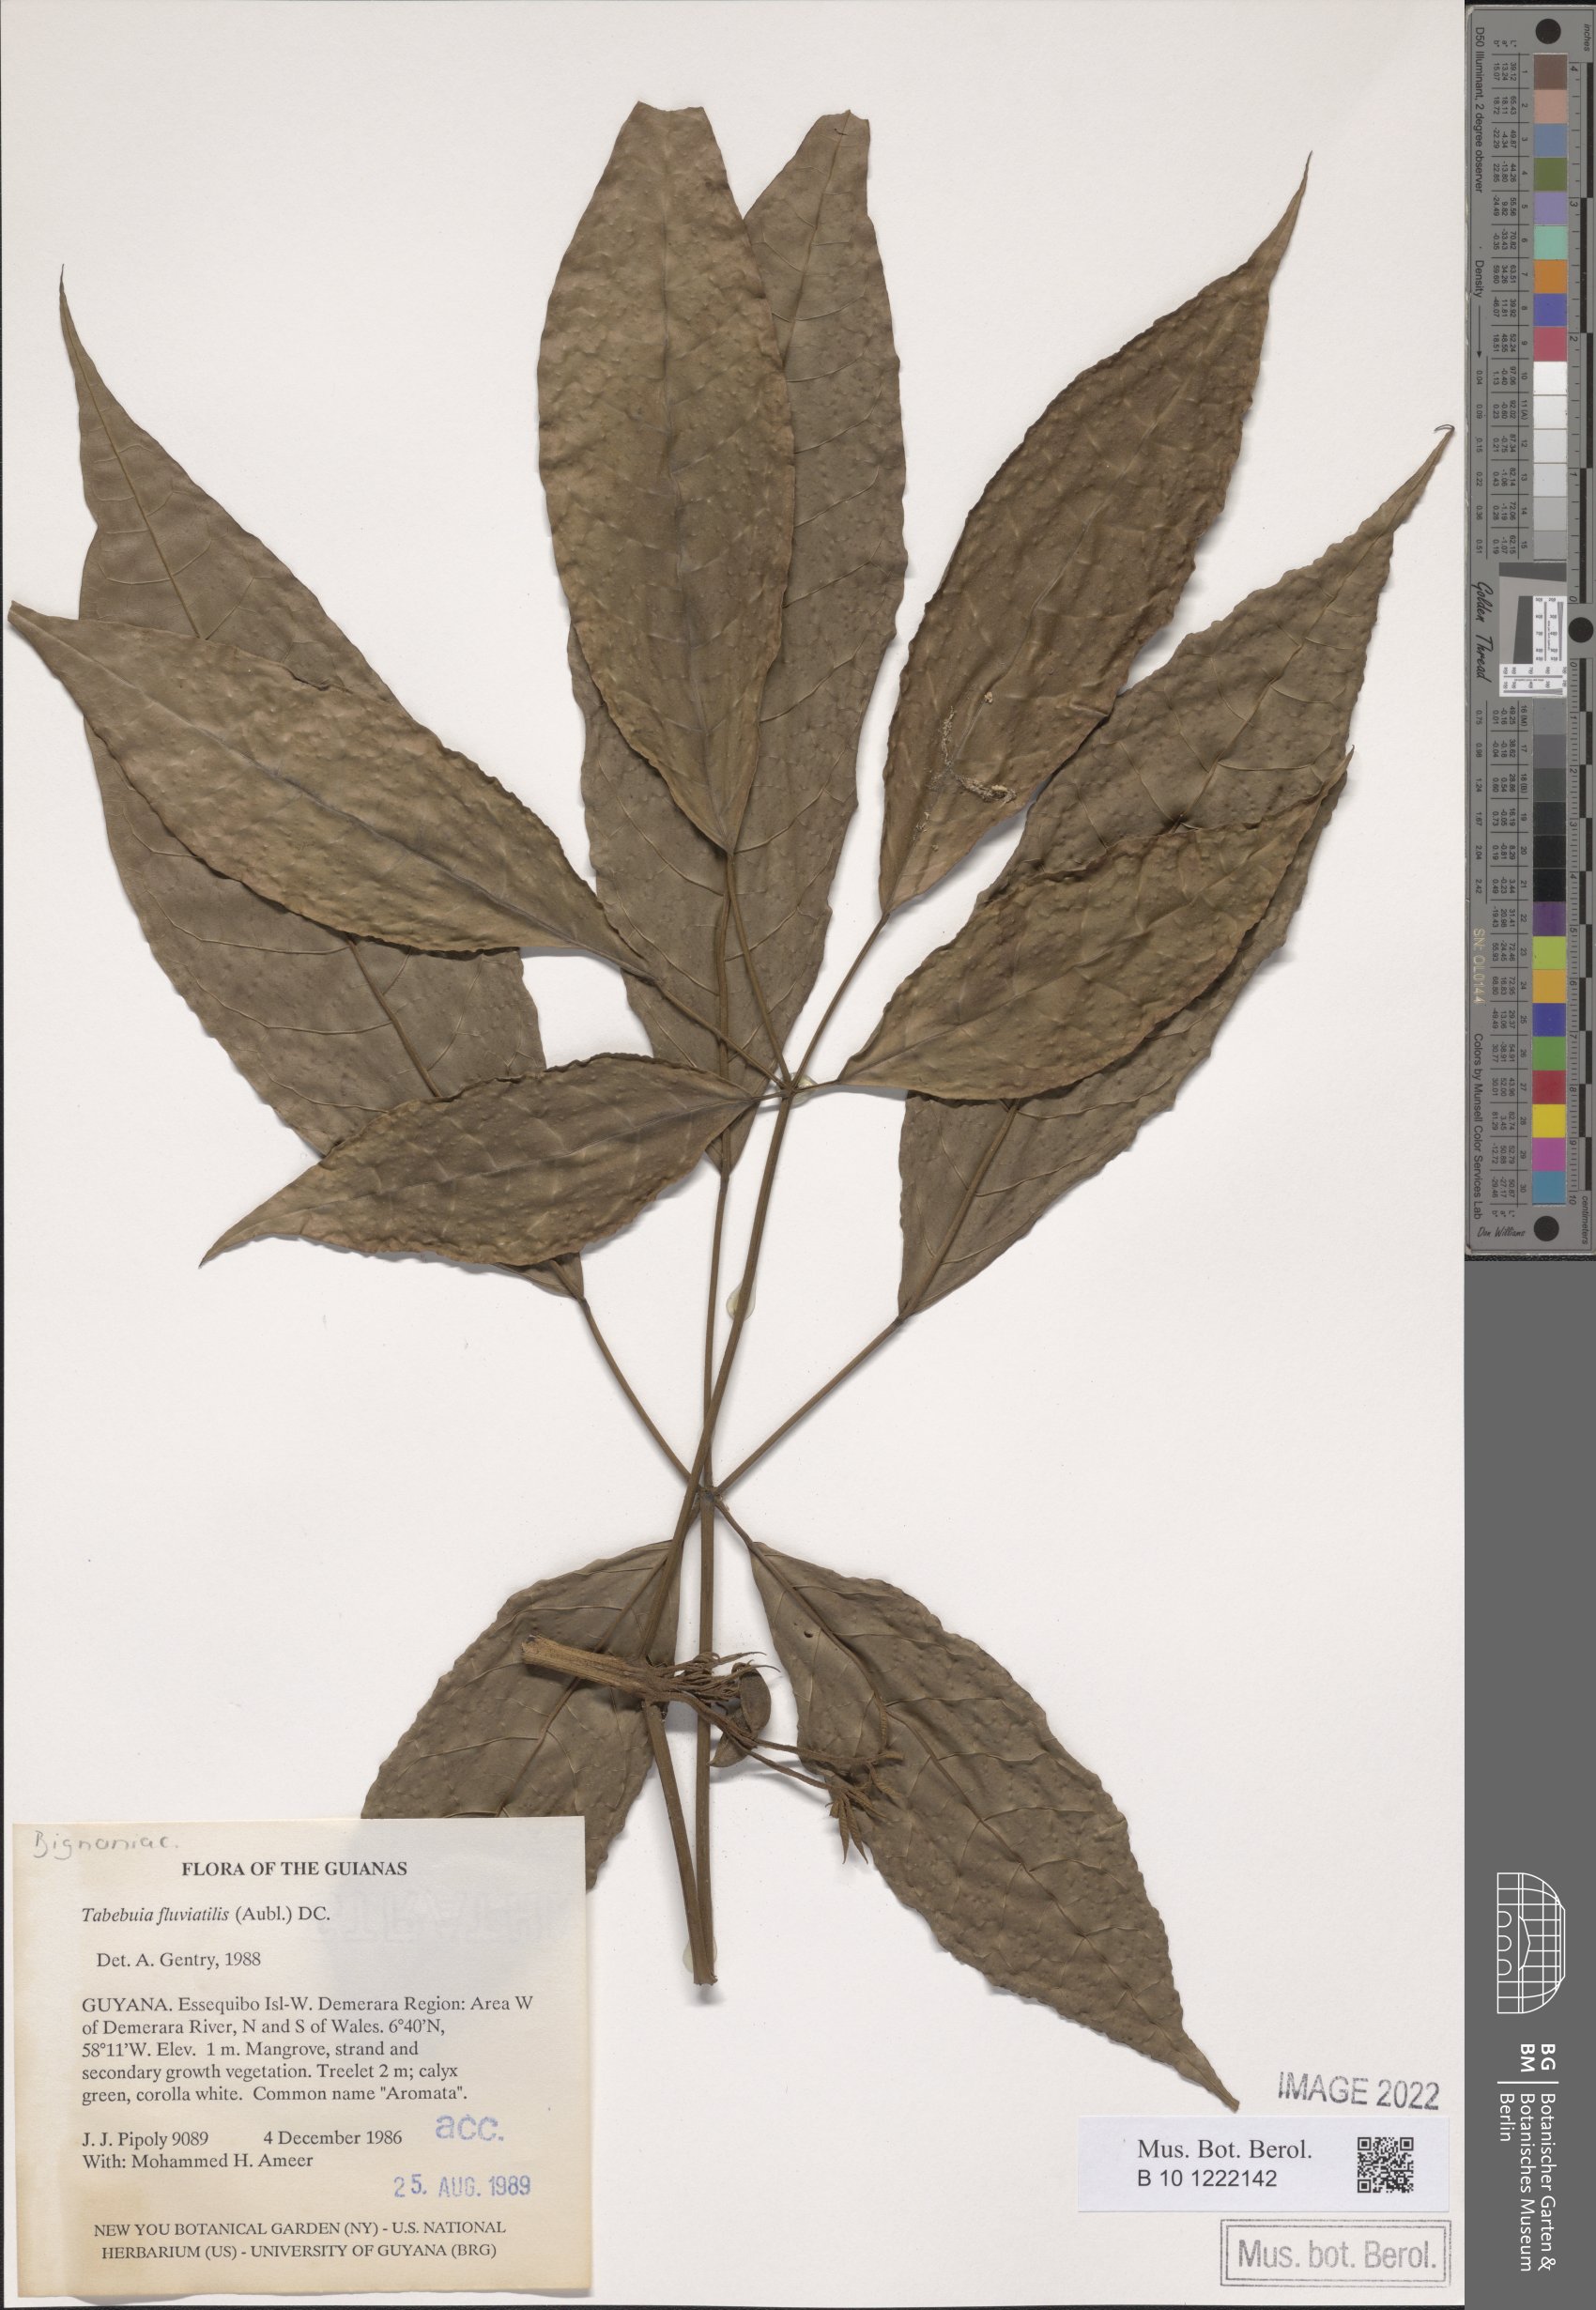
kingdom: Plantae
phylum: Tracheophyta
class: Magnoliopsida
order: Lamiales
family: Bignoniaceae
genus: Tabebuia
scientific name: Tabebuia fluviatilis
